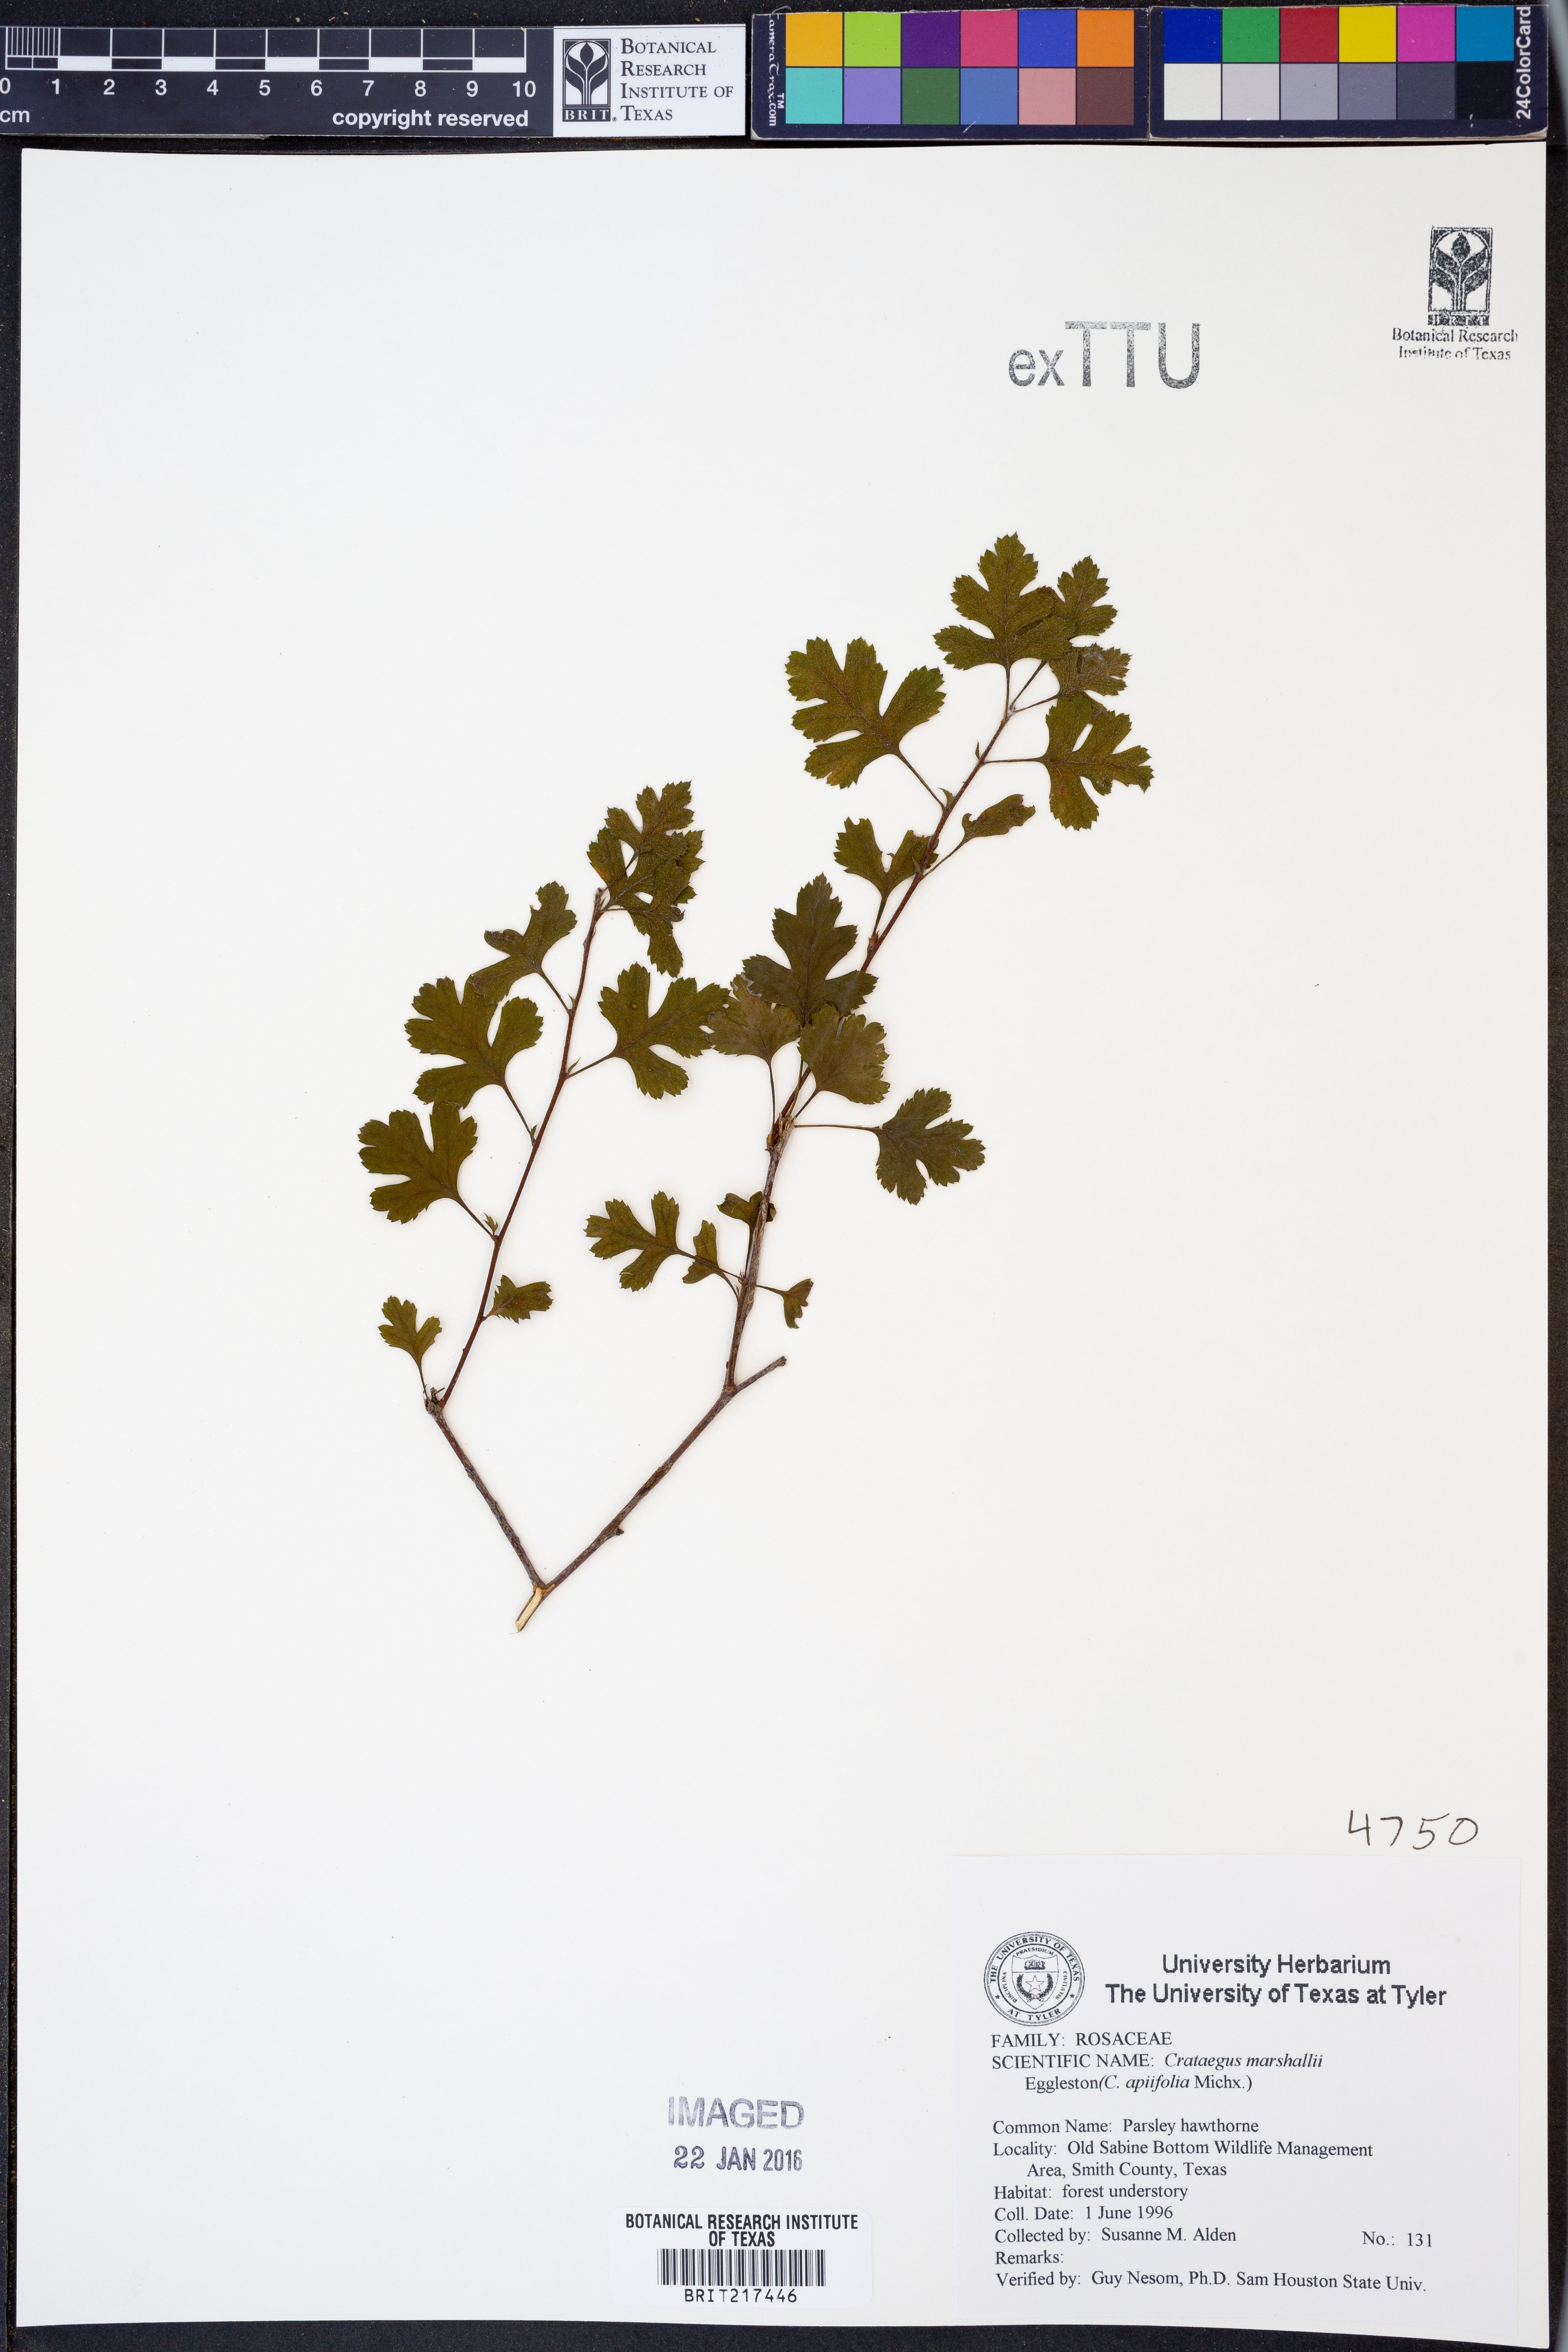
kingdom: Plantae
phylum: Tracheophyta
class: Magnoliopsida
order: Rosales
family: Rosaceae
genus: Crataegus
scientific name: Crataegus marshallii
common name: Parsley-hawthorn
